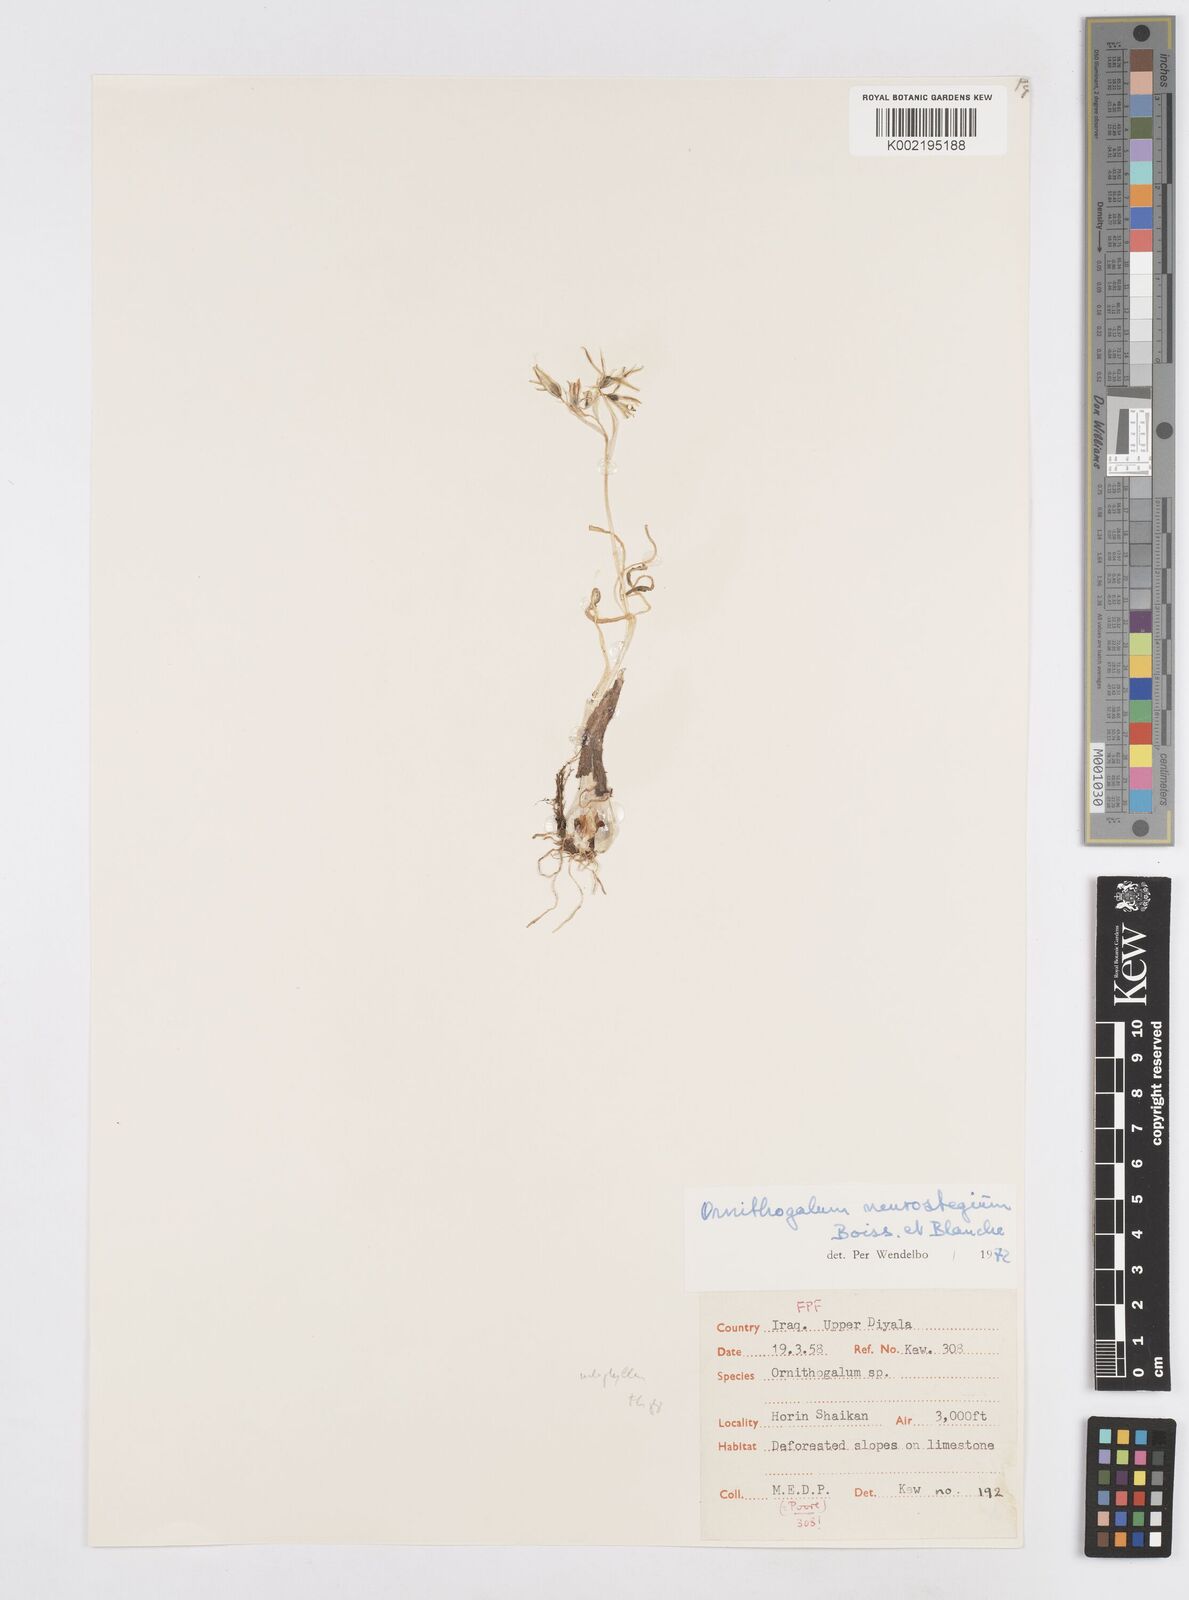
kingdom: Plantae
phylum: Tracheophyta
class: Liliopsida
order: Asparagales
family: Asparagaceae
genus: Ornithogalum
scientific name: Ornithogalum neurostegium
